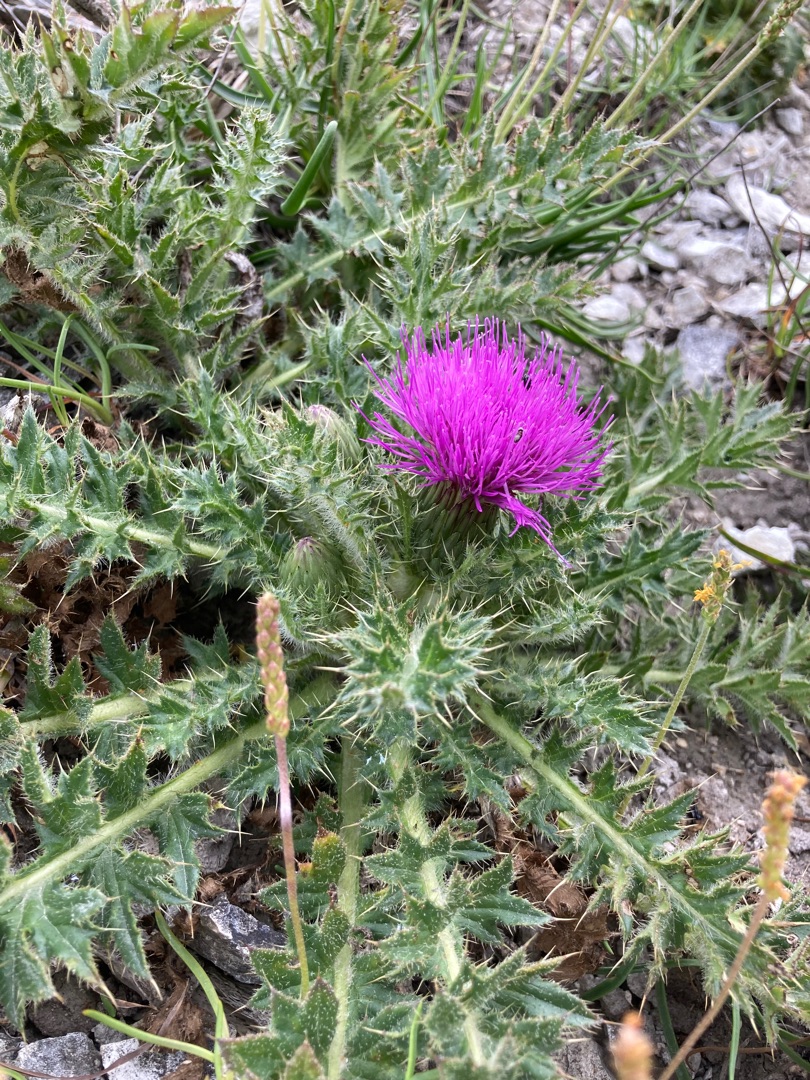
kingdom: Plantae
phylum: Tracheophyta
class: Magnoliopsida
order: Asterales
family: Asteraceae
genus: Cirsium
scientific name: Cirsium acaule
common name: Lav tidsel
